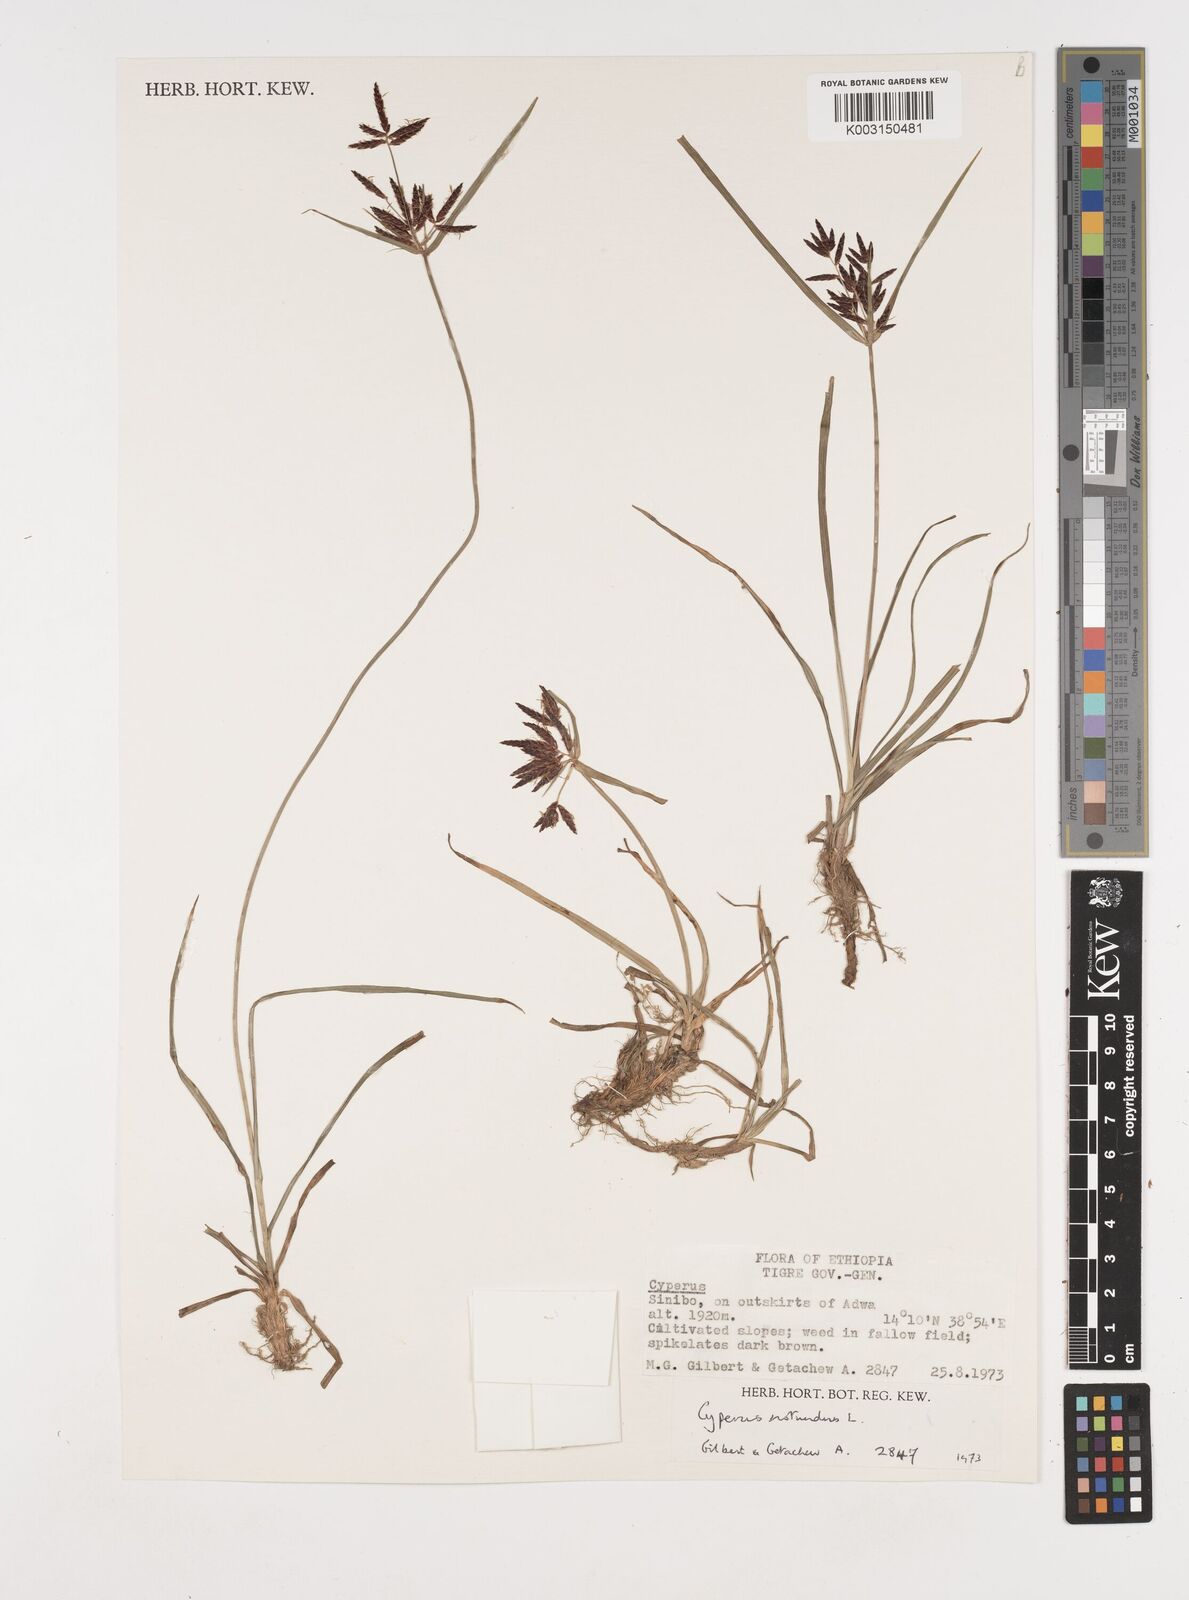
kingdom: Plantae
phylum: Tracheophyta
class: Liliopsida
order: Poales
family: Cyperaceae
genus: Cyperus
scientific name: Cyperus rotundus
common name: Nutgrass
